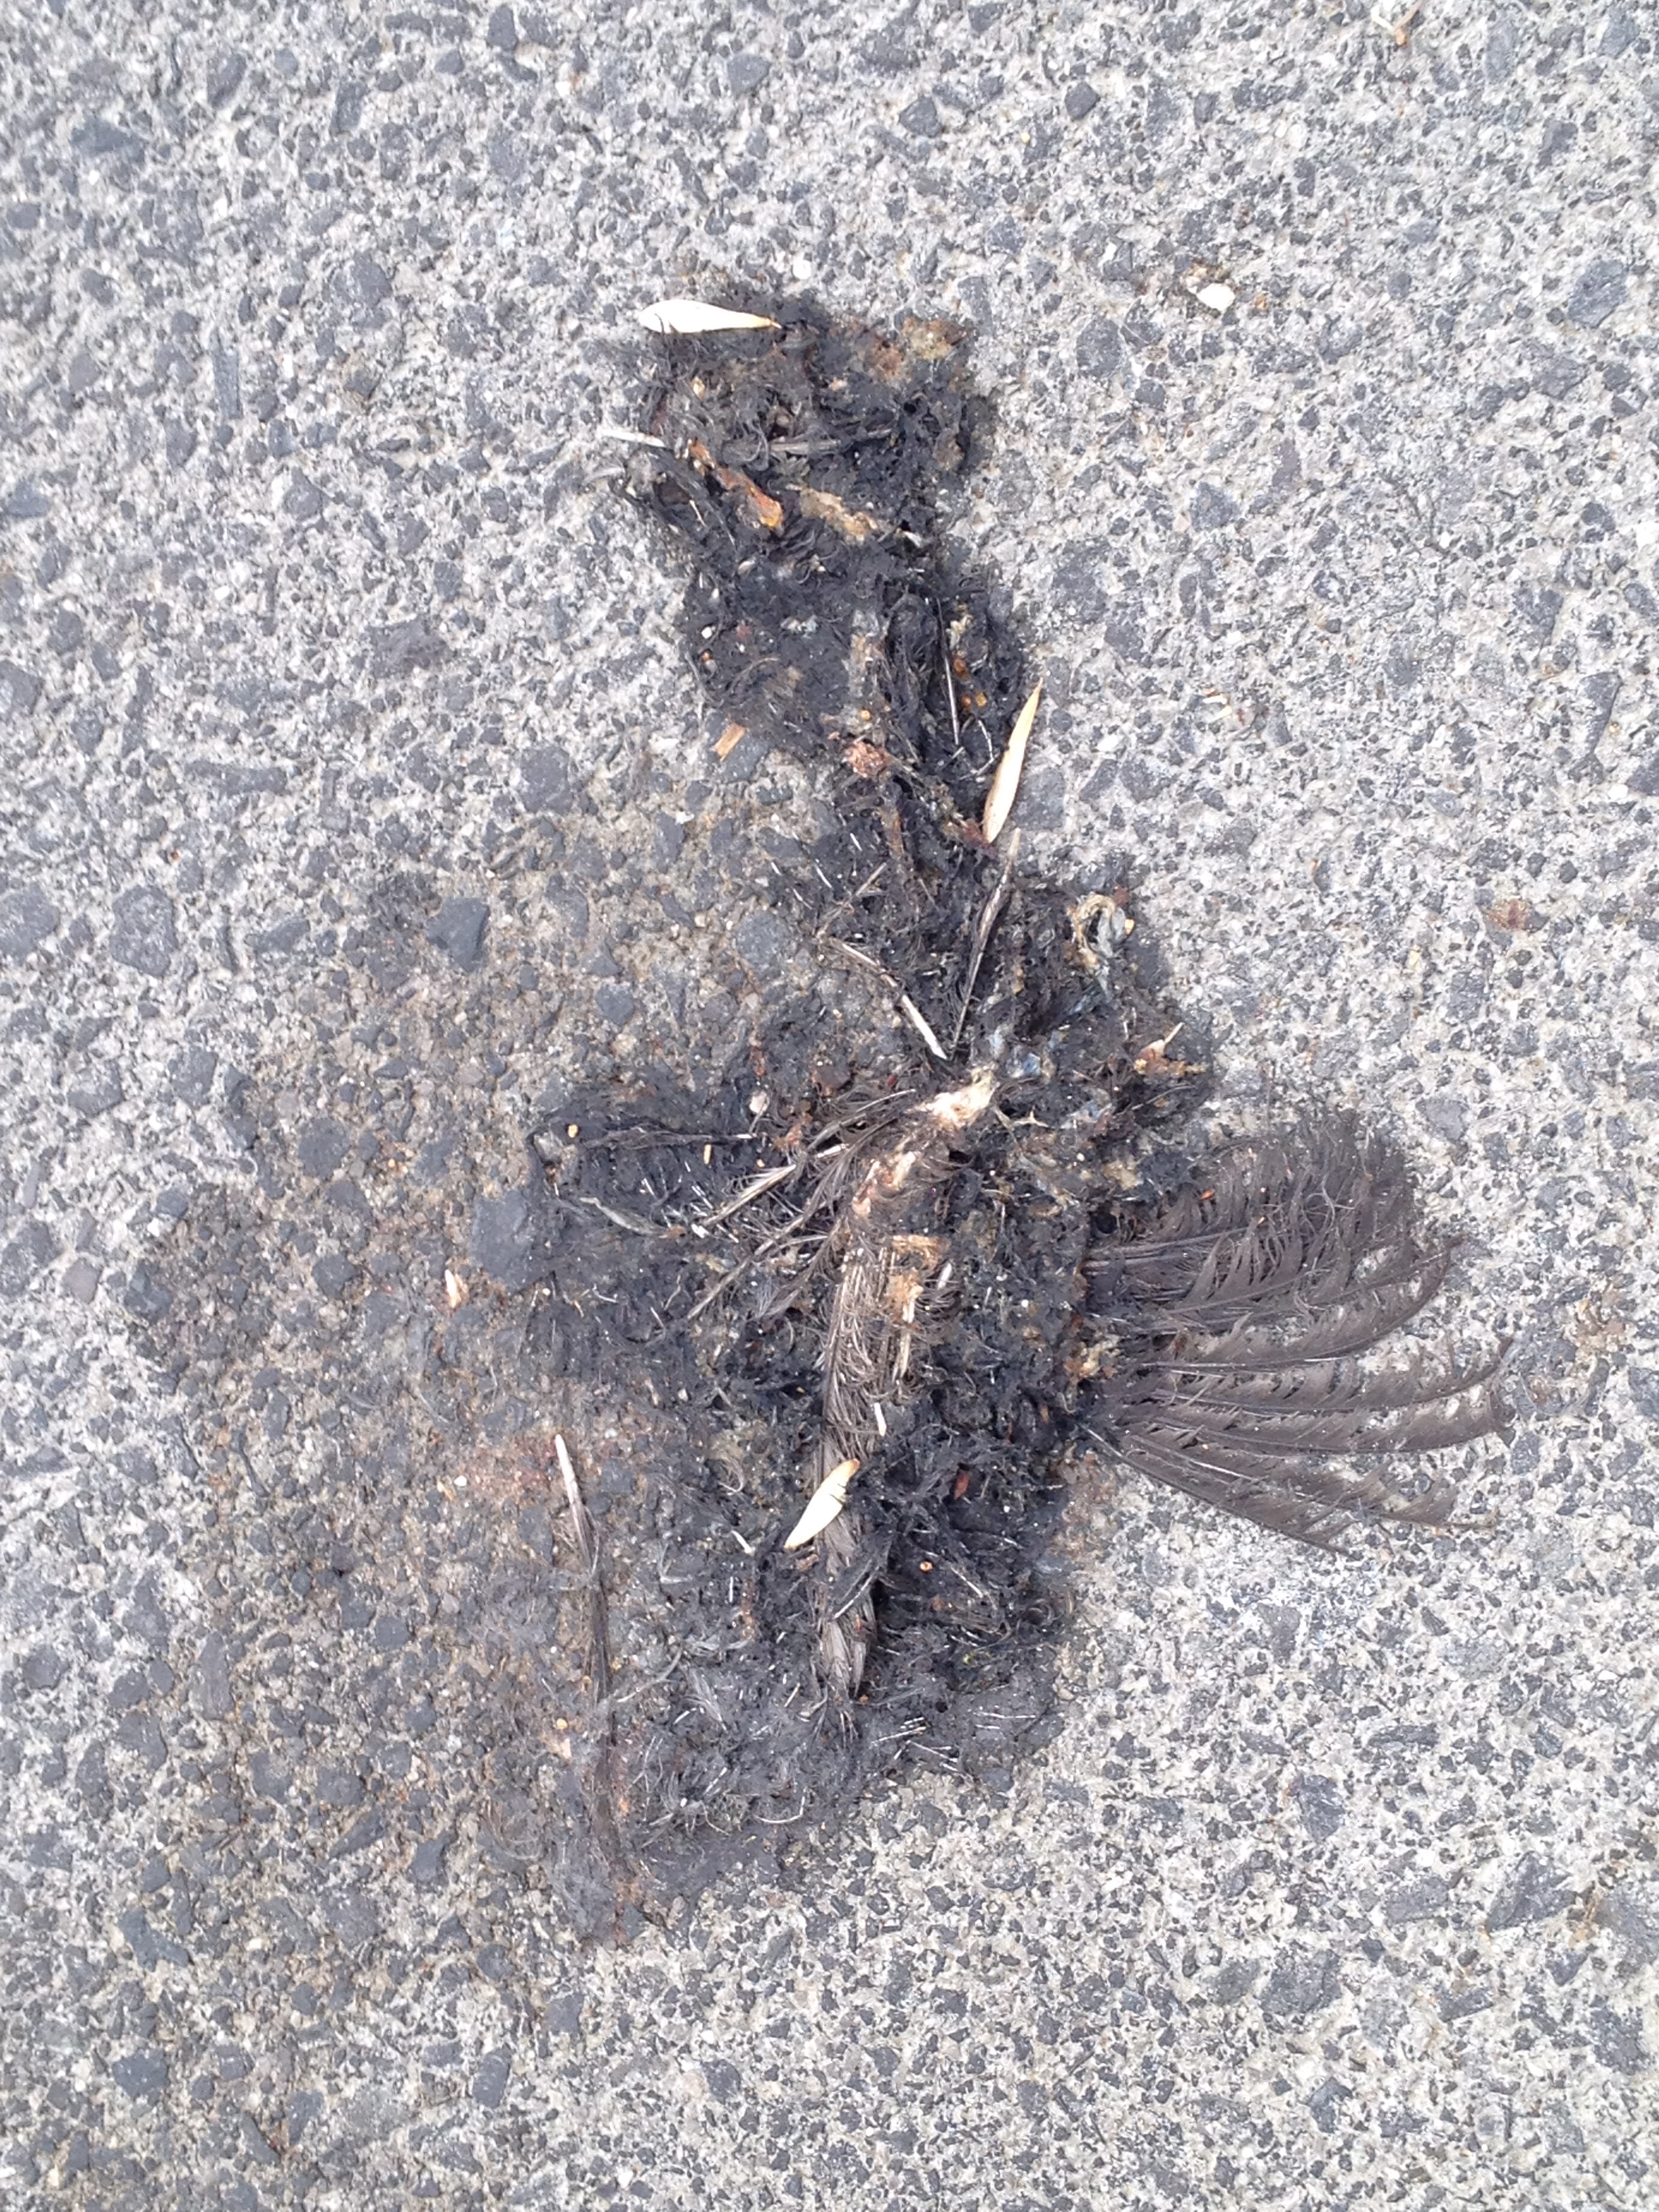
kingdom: Animalia
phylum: Chordata
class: Aves
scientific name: Aves
